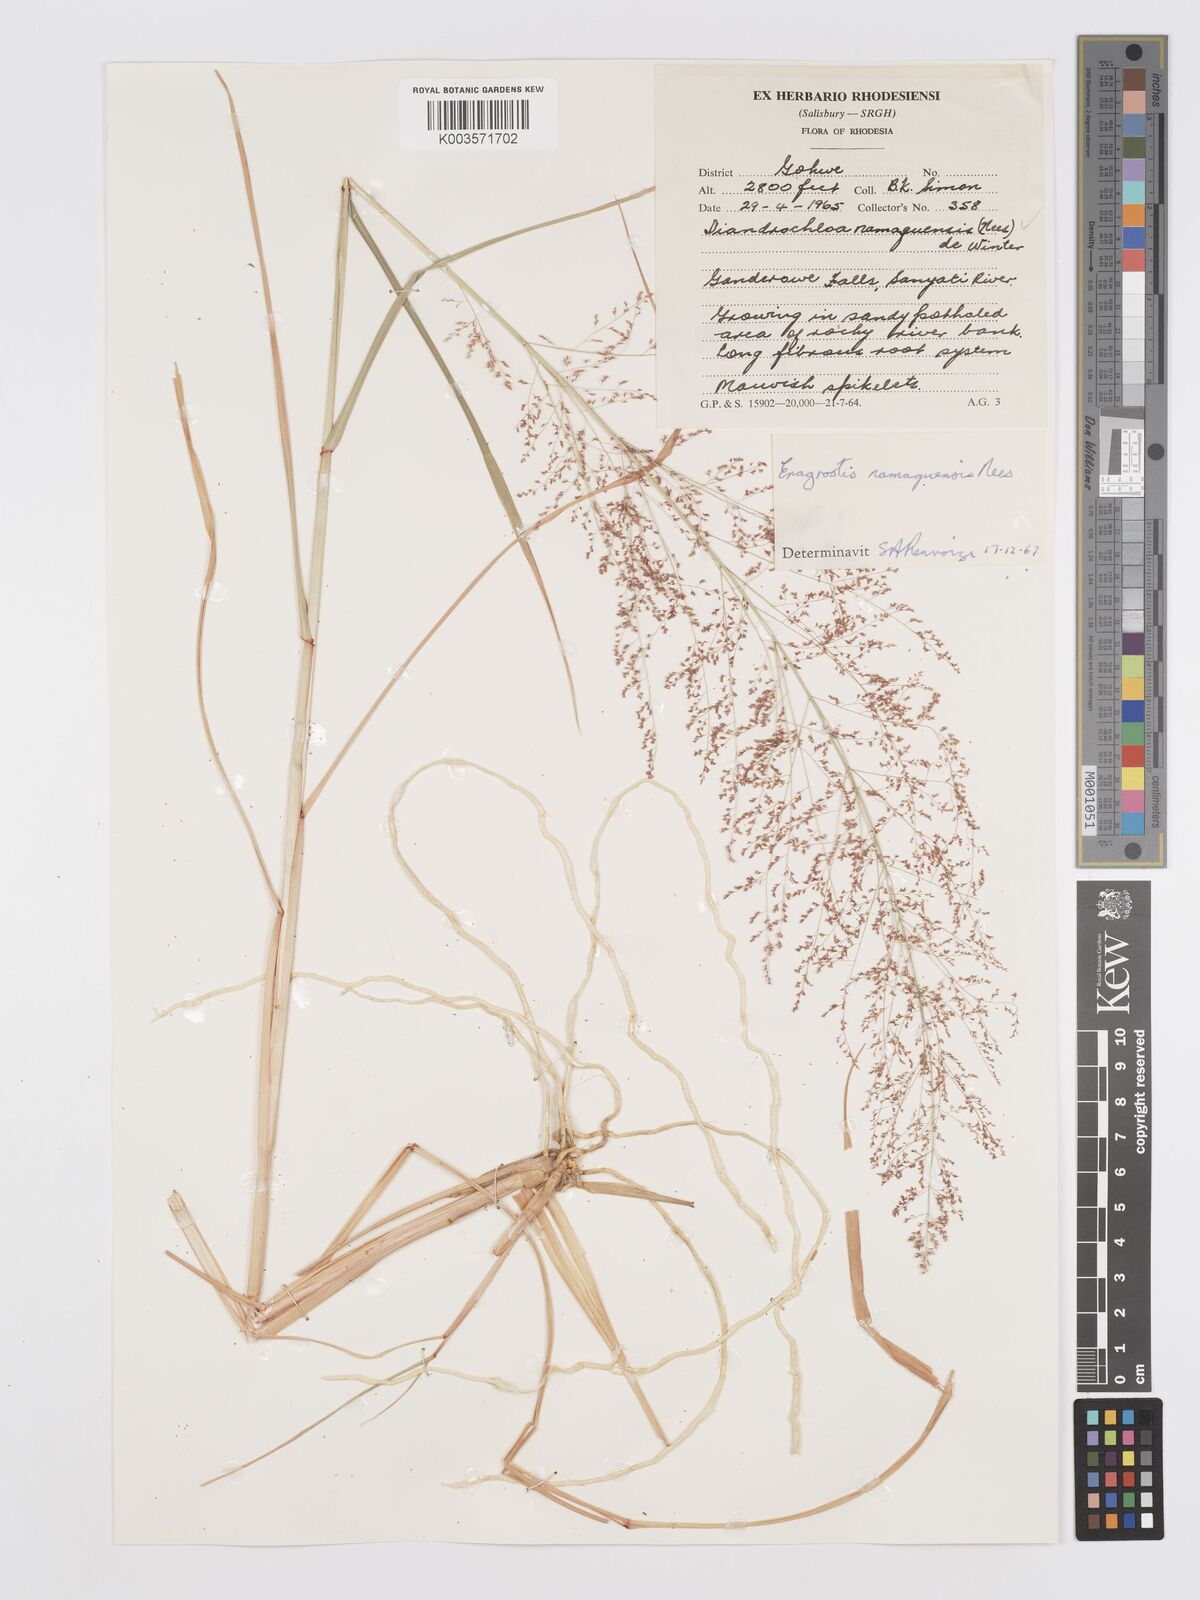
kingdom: Plantae
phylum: Tracheophyta
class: Liliopsida
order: Poales
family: Poaceae
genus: Eragrostis
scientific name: Eragrostis japonica
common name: Pond lovegrass
